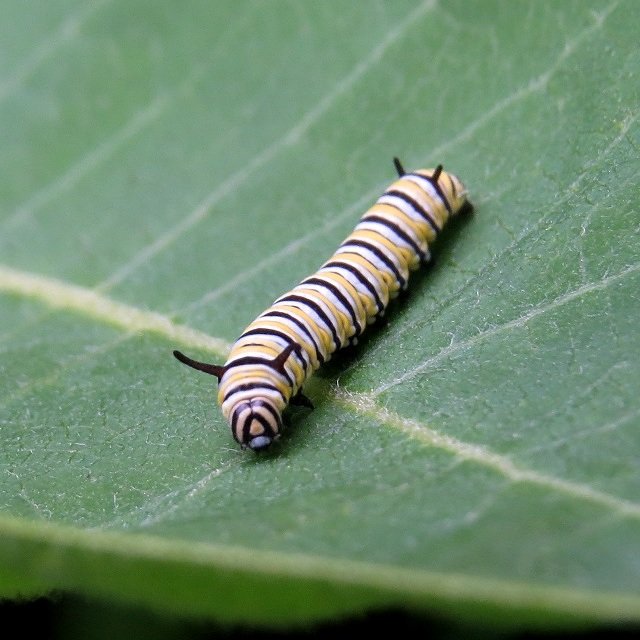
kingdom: Animalia
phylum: Arthropoda
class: Insecta
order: Lepidoptera
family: Nymphalidae
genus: Danaus
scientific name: Danaus plexippus
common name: Monarch
